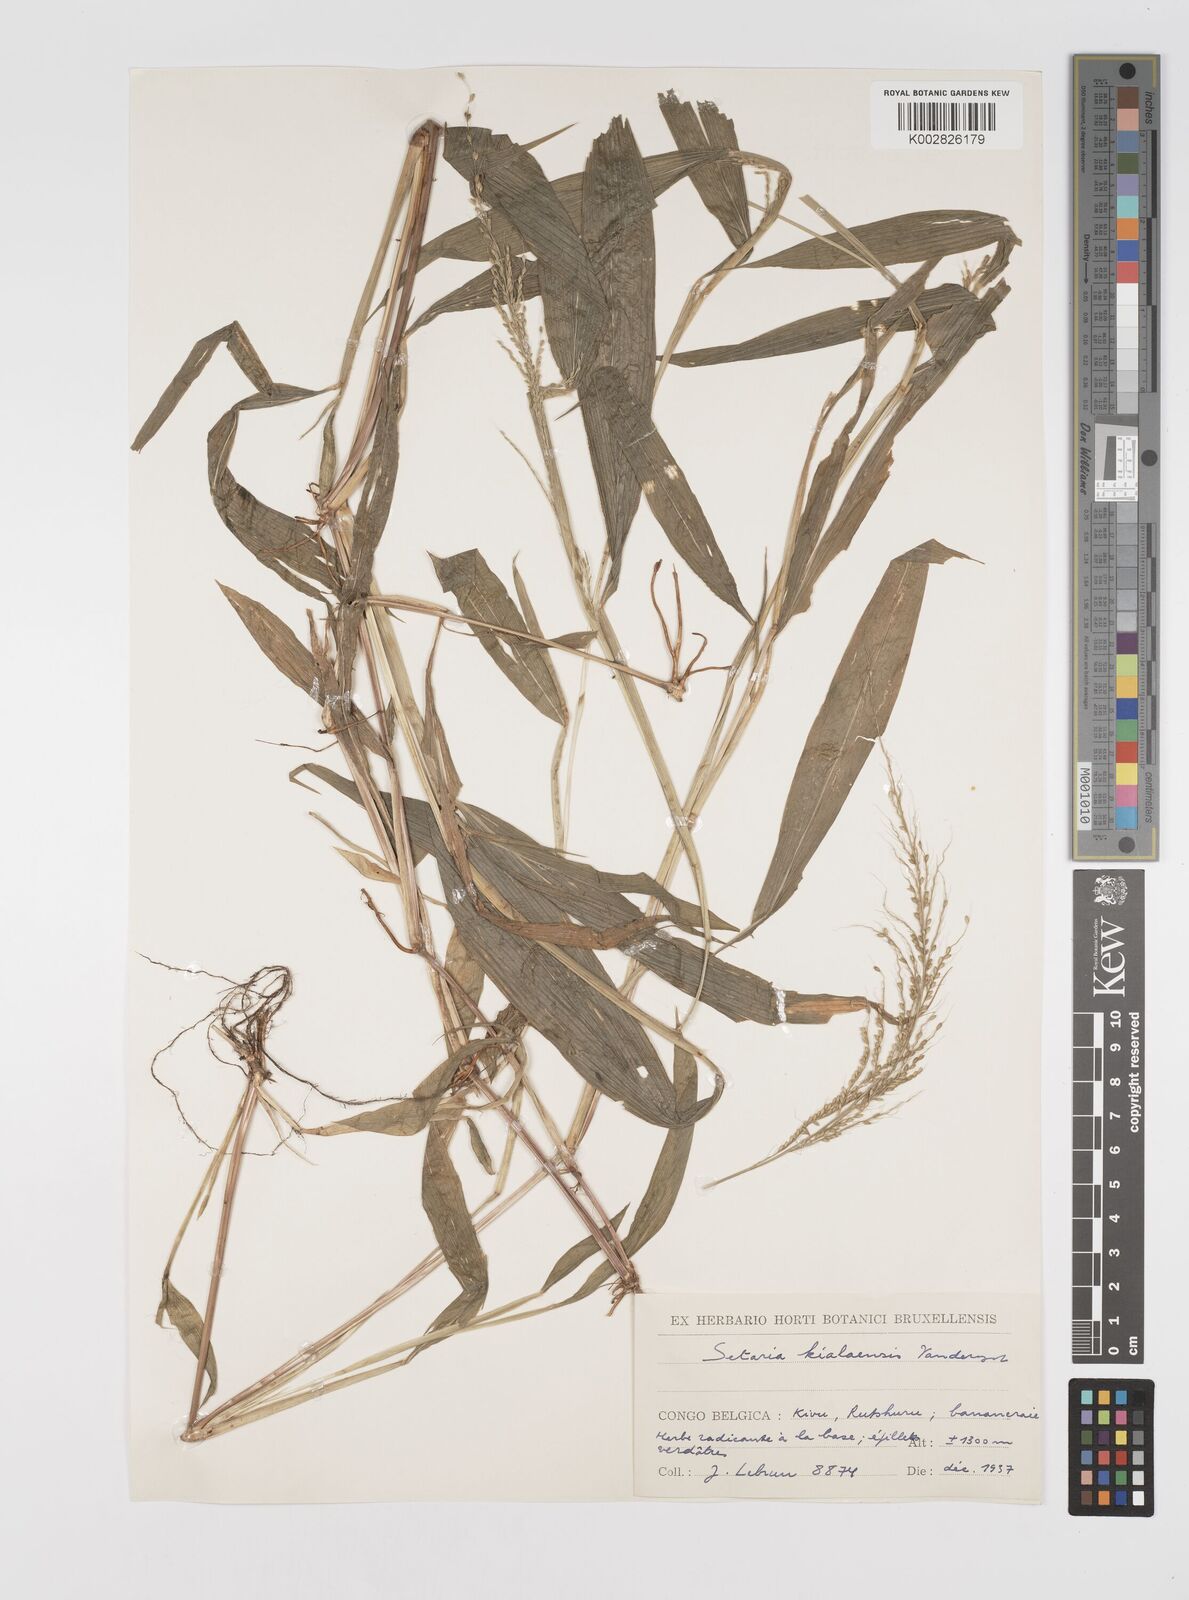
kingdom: Plantae
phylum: Tracheophyta
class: Liliopsida
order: Poales
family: Poaceae
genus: Setaria
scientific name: Setaria homonyma
